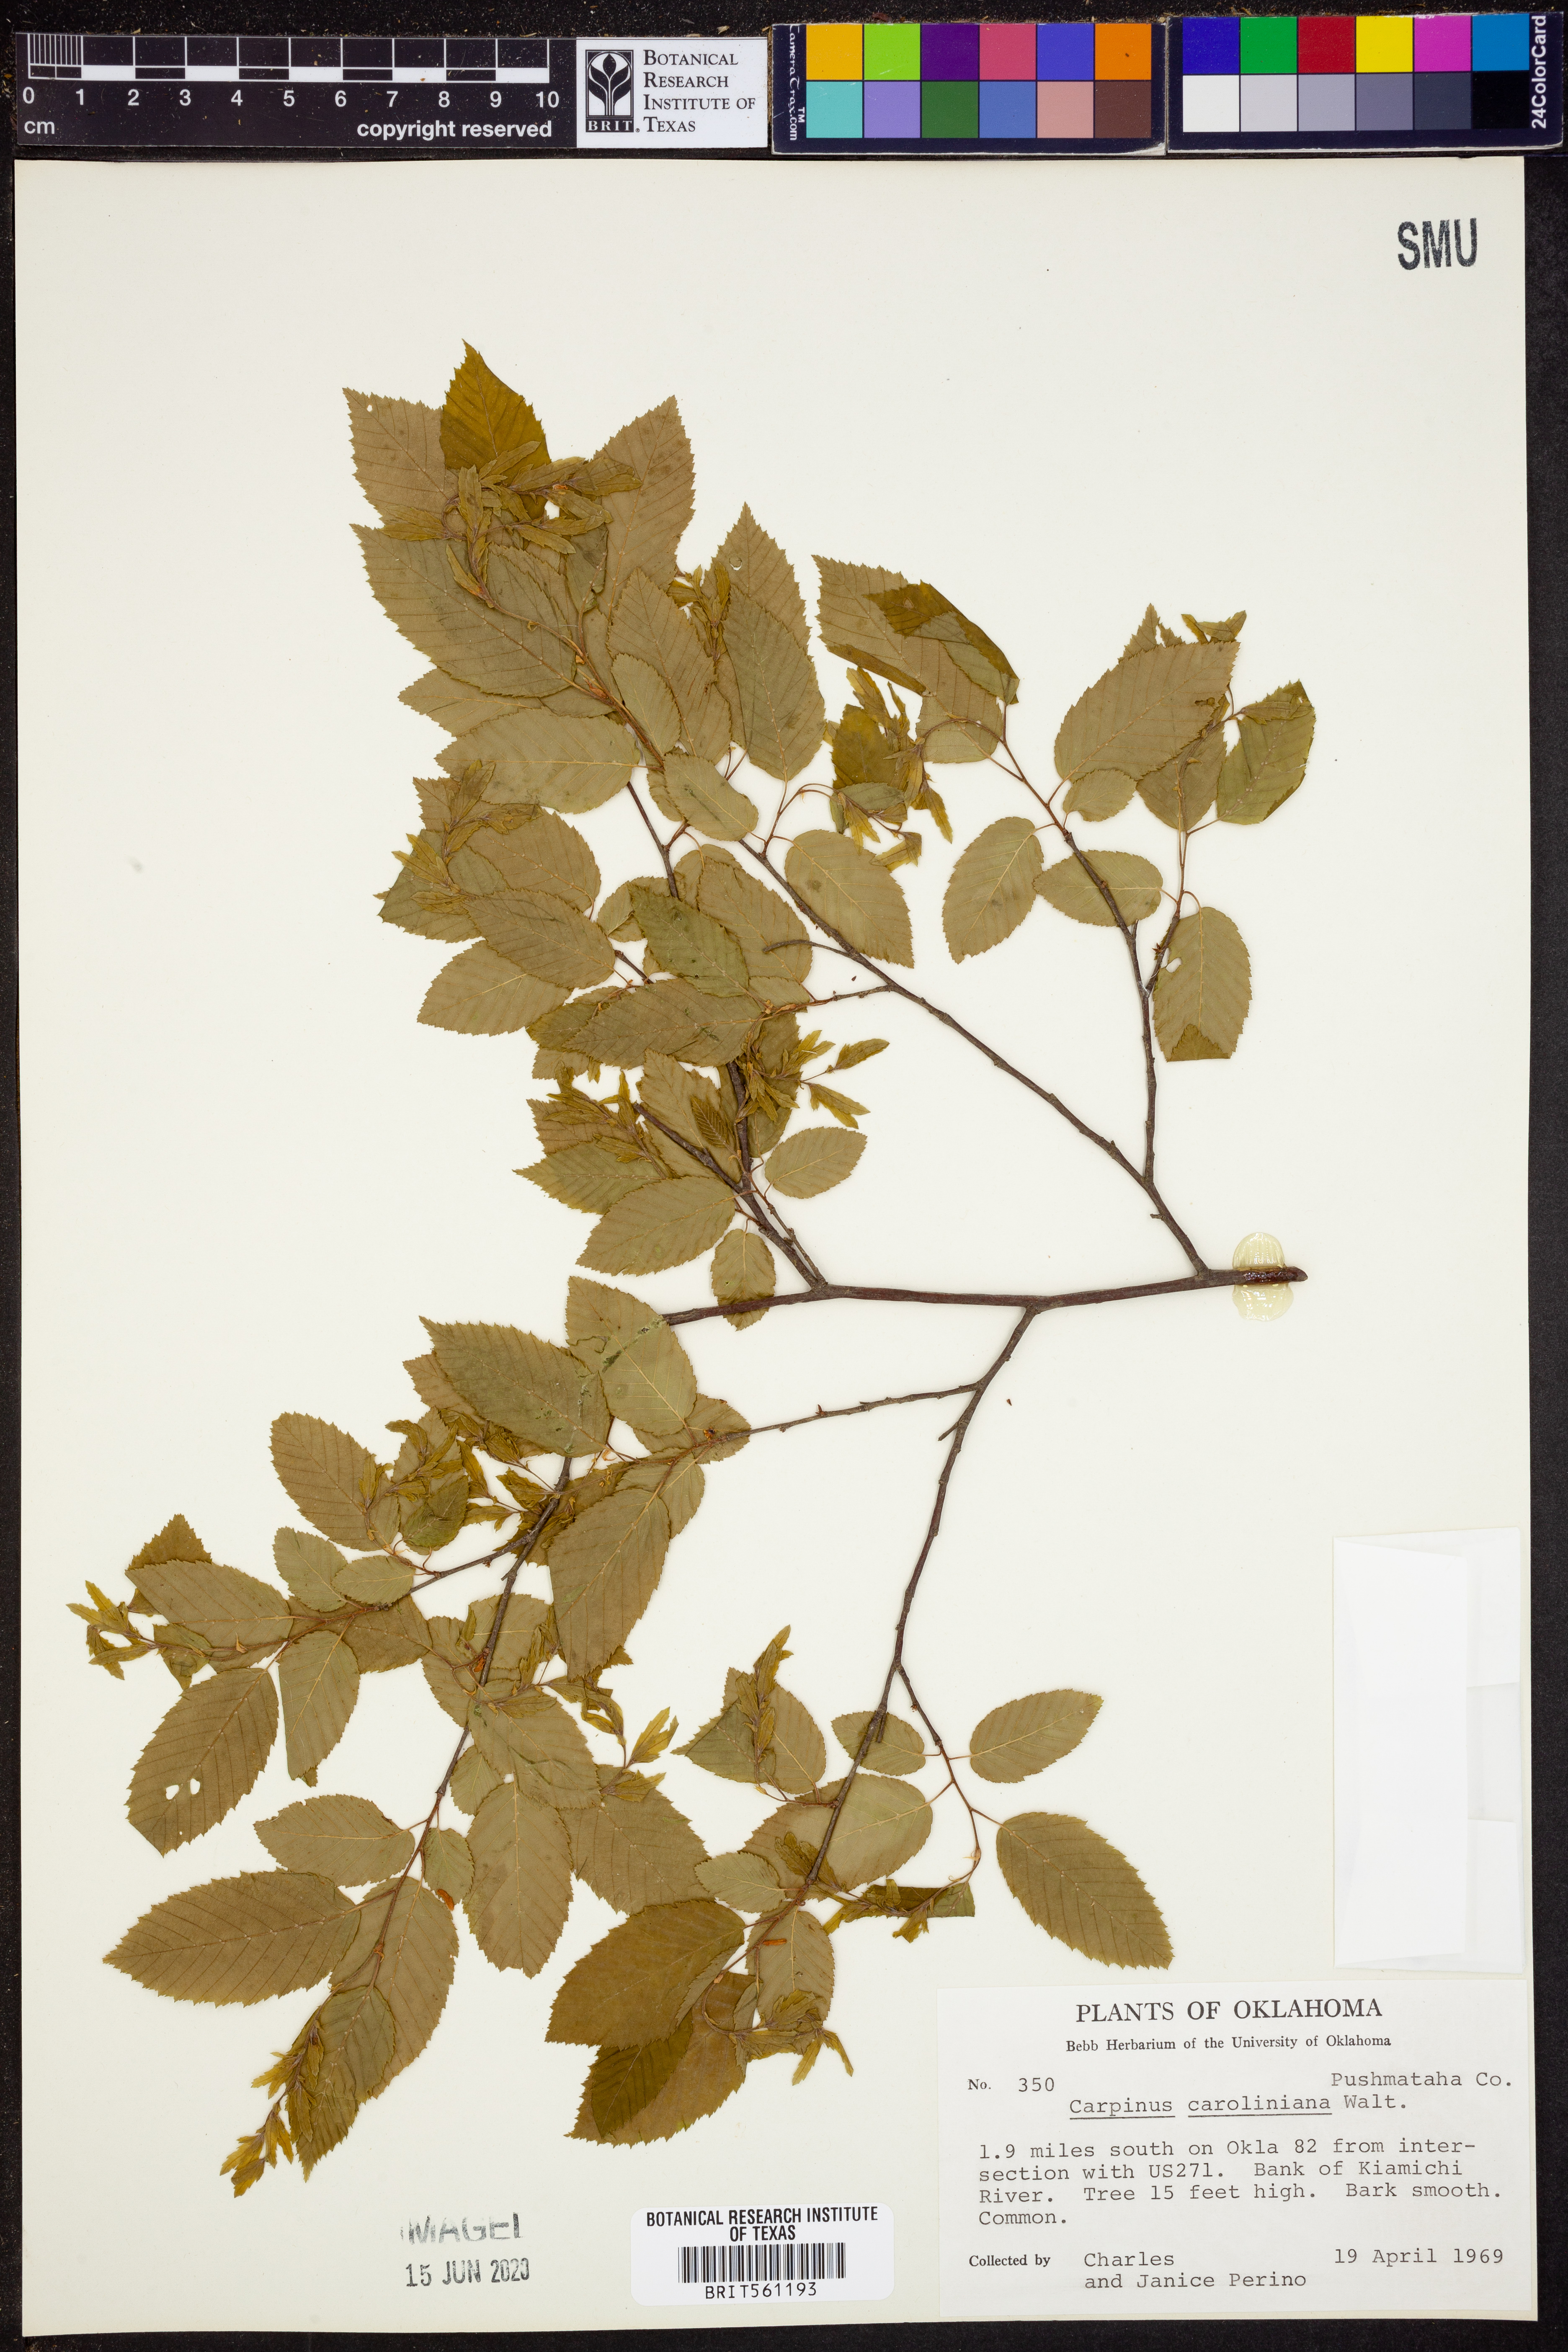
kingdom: Plantae
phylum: Tracheophyta
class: Magnoliopsida
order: Fagales
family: Betulaceae
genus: Carpinus
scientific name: Carpinus caroliniana
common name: American hornbeam
